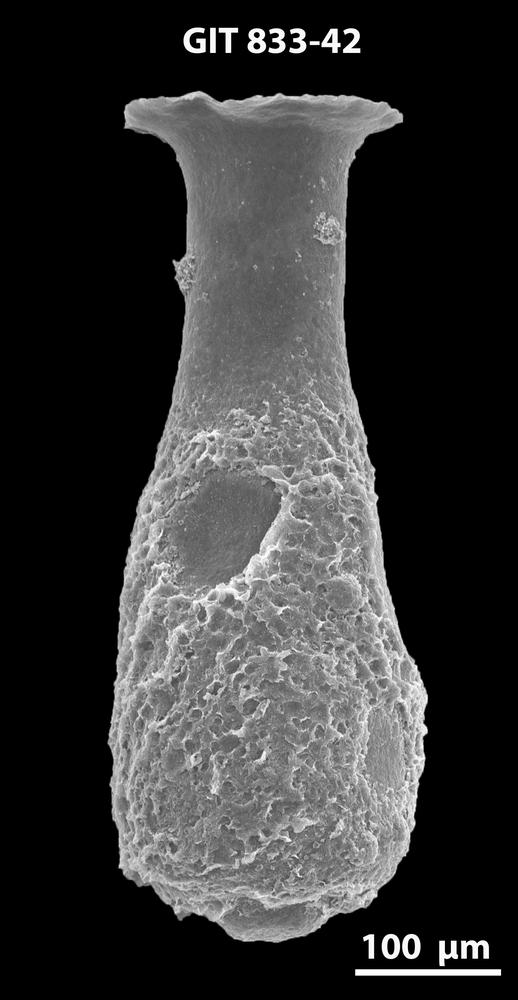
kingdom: Animalia
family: Lagenochitinidae
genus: Lagenochitina
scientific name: Lagenochitina megaesthonica
